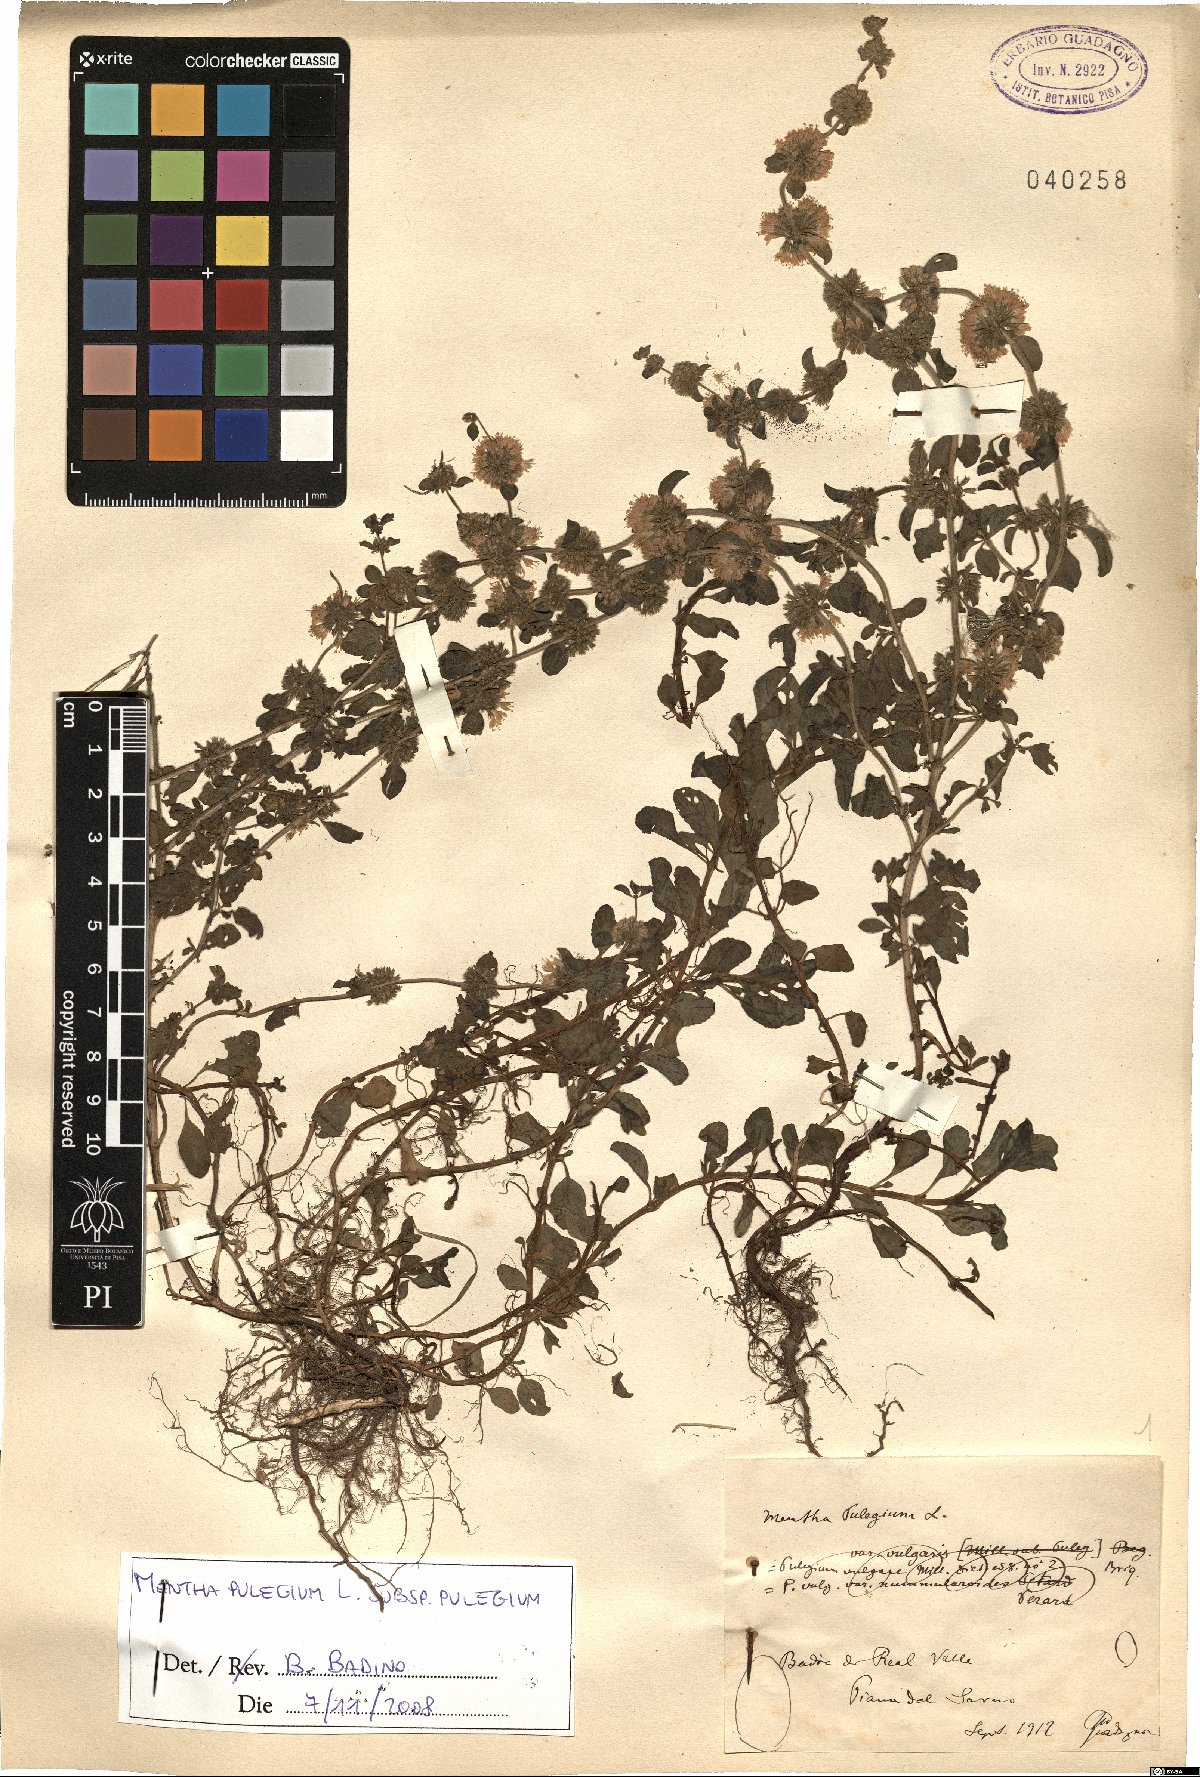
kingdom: Plantae
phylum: Tracheophyta
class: Magnoliopsida
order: Lamiales
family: Lamiaceae
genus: Mentha
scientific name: Mentha pulegium
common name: Pennyroyal
